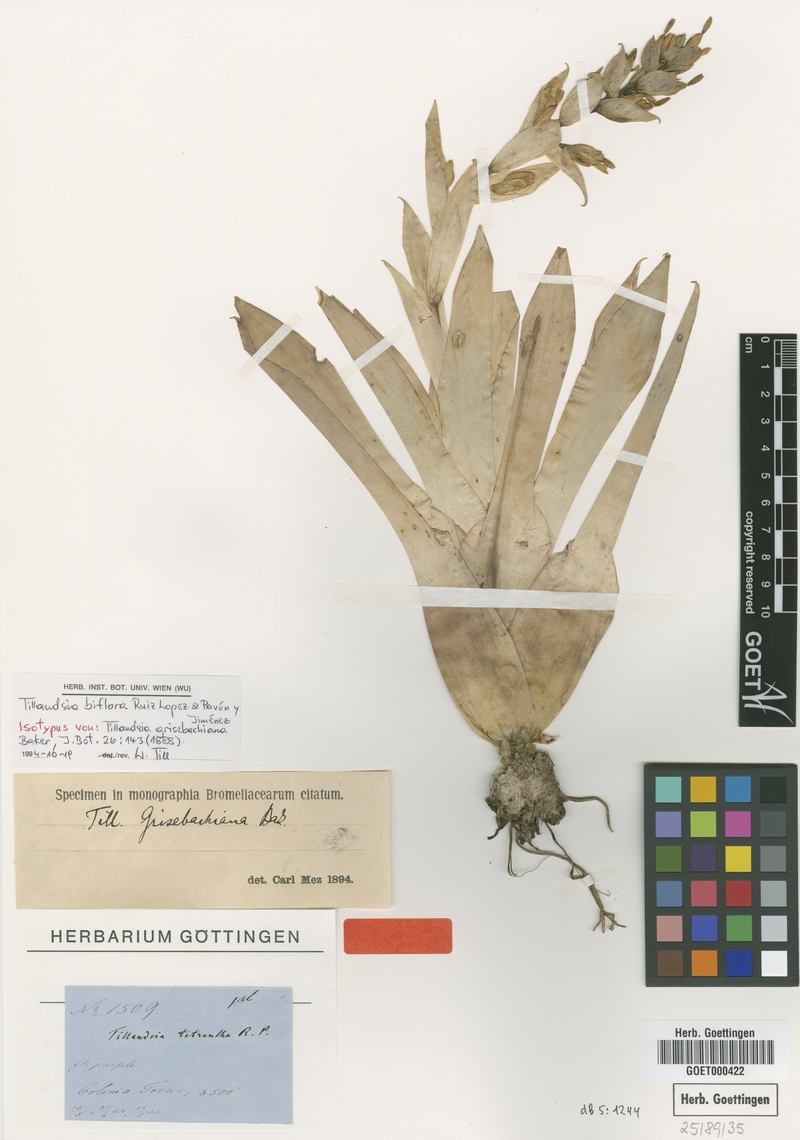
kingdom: Plantae
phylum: Tracheophyta
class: Liliopsida
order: Poales
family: Bromeliaceae
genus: Tillandsia
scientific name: Tillandsia biflora
